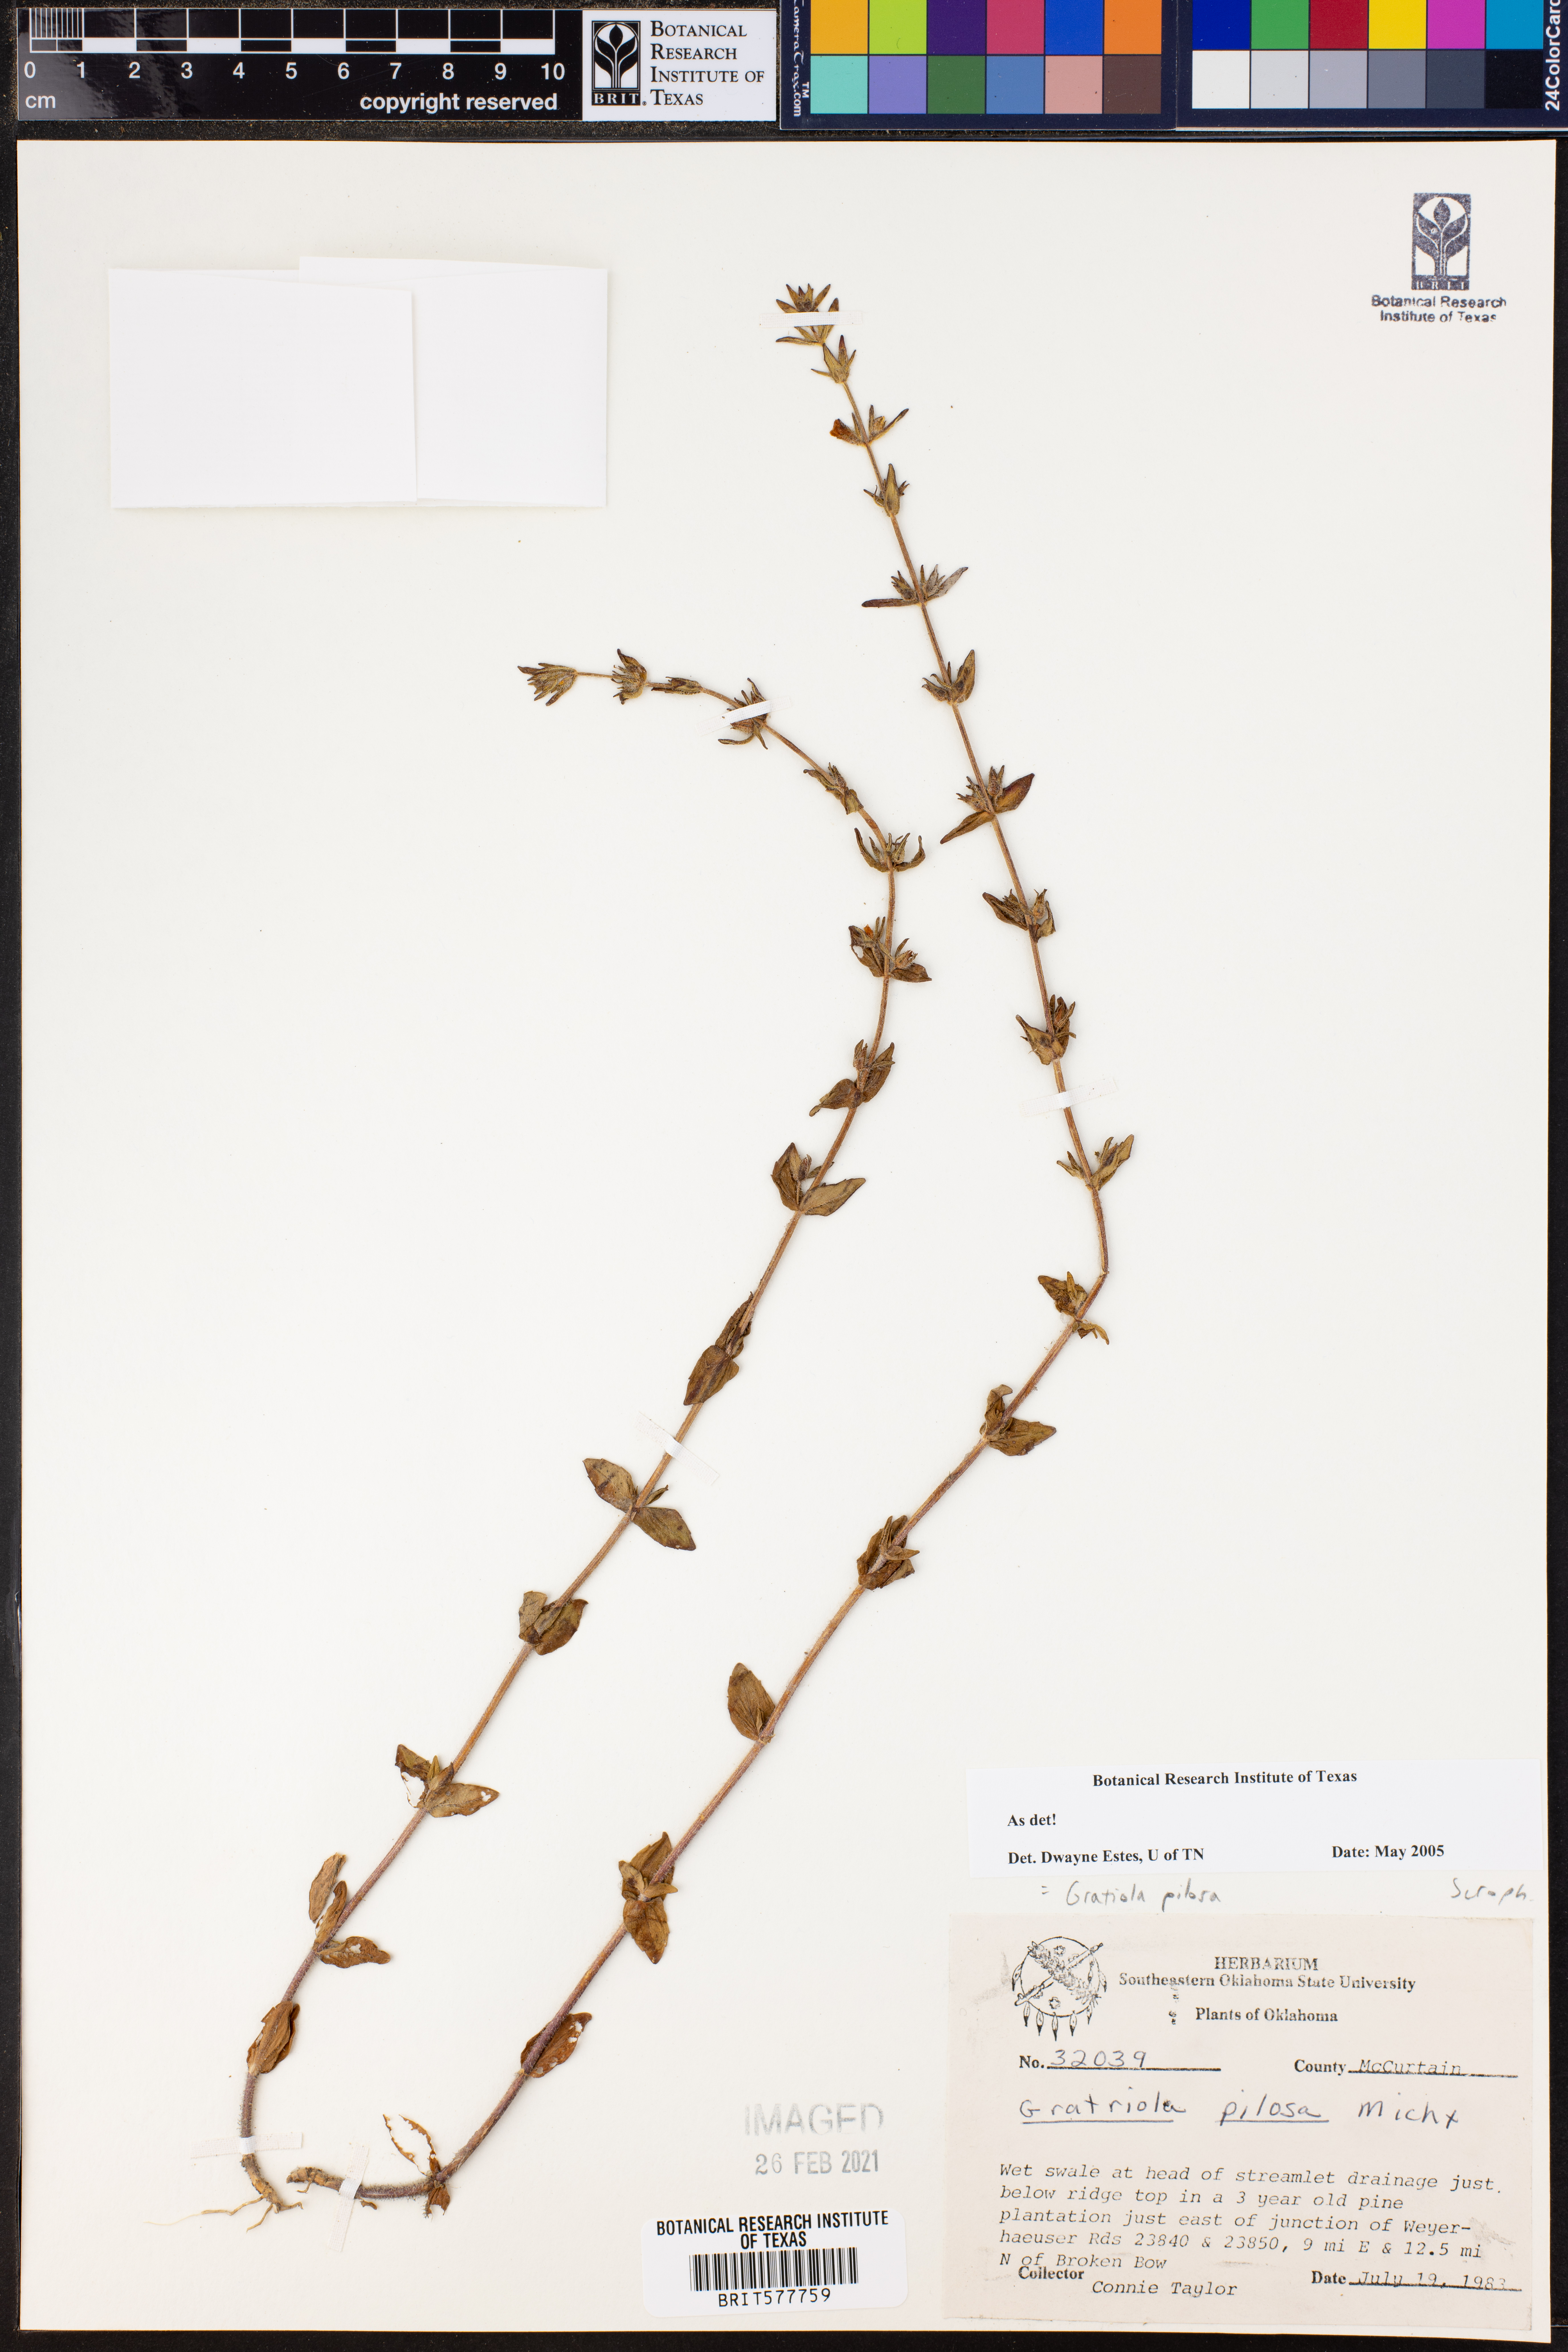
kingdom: Plantae
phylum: Tracheophyta
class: Magnoliopsida
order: Lamiales
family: Plantaginaceae
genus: Gratiola
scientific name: Gratiola pilosa
